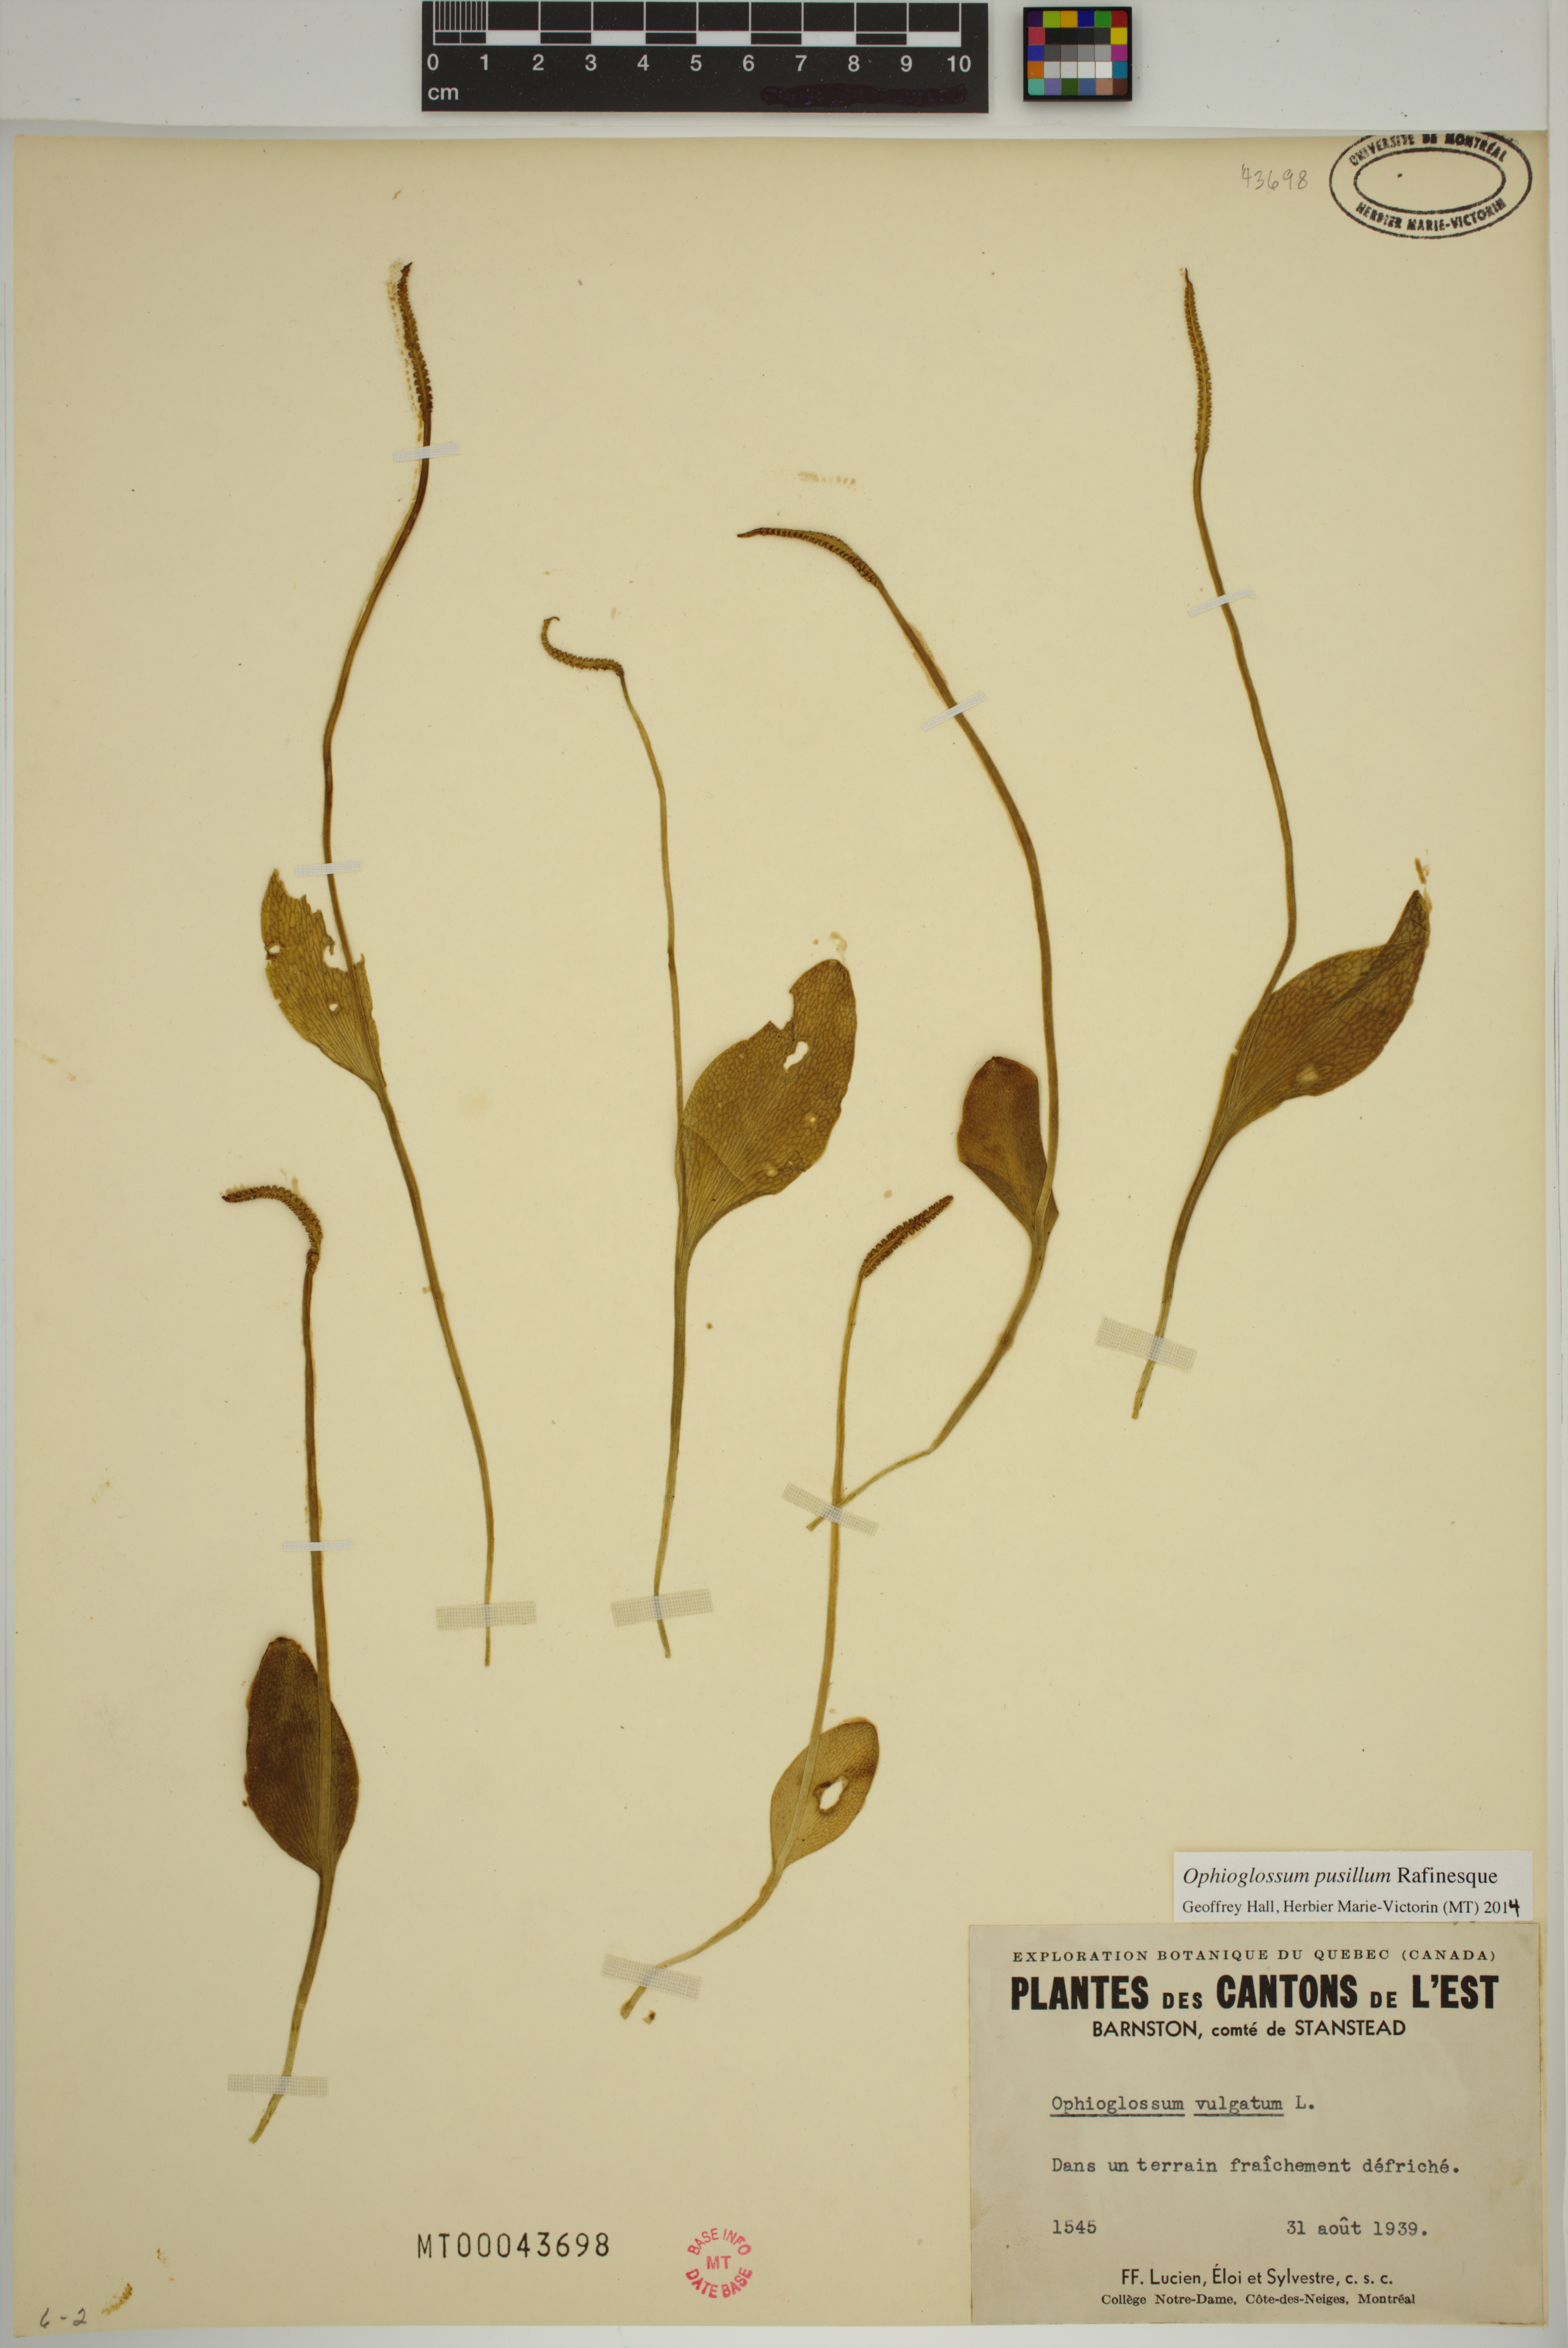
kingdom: Plantae
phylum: Tracheophyta
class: Polypodiopsida
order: Ophioglossales
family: Ophioglossaceae
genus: Ophioglossum
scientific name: Ophioglossum pusillum
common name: Northern adder's-tongue
